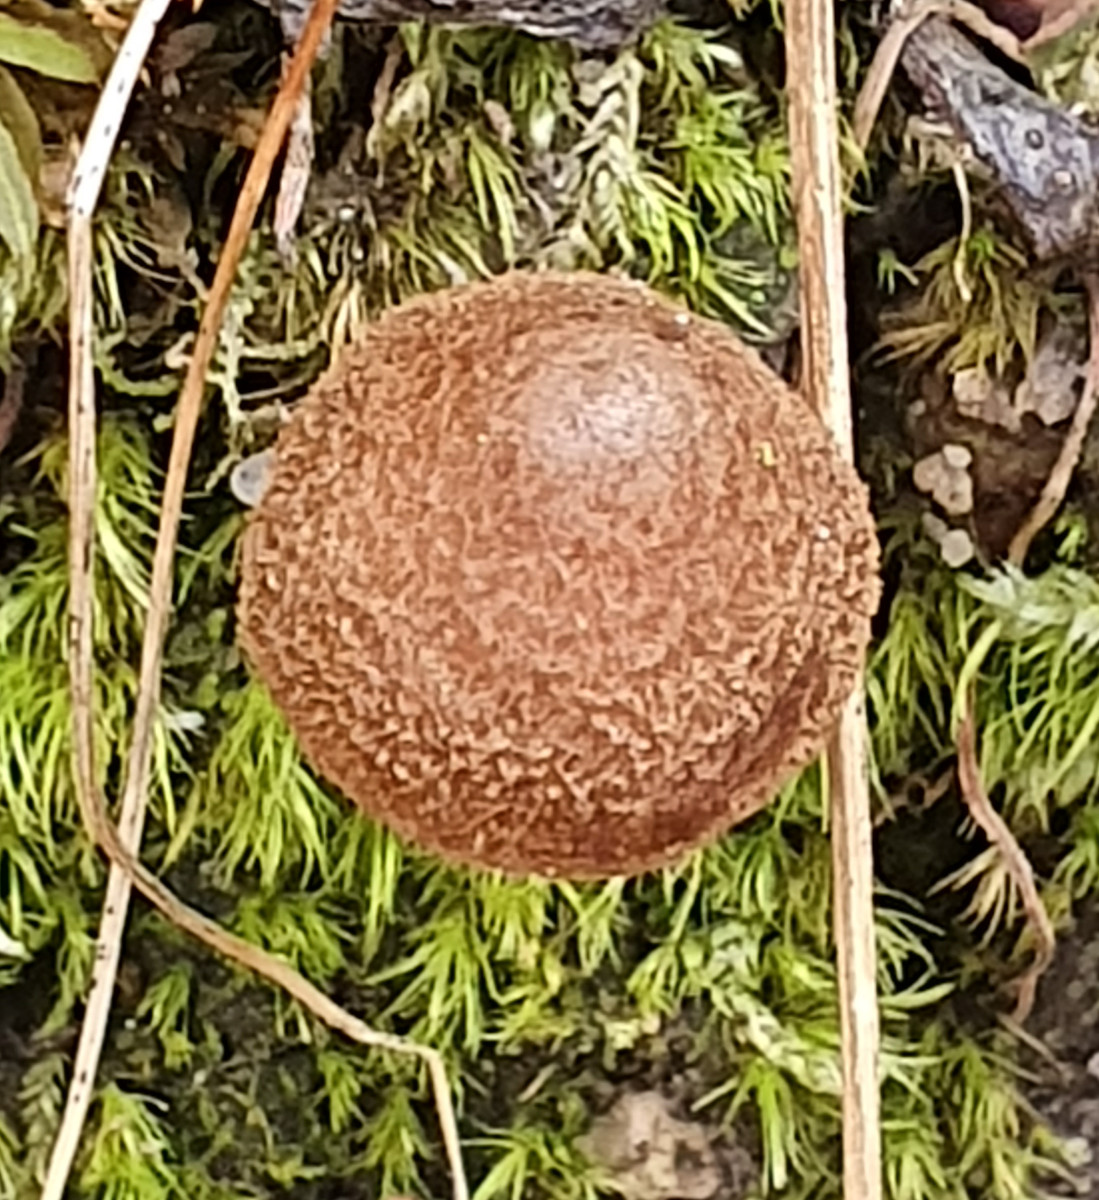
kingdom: Fungi
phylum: Basidiomycota
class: Agaricomycetes
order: Agaricales
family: Inocybaceae
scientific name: Inocybaceae
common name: trævlhatfamilien
